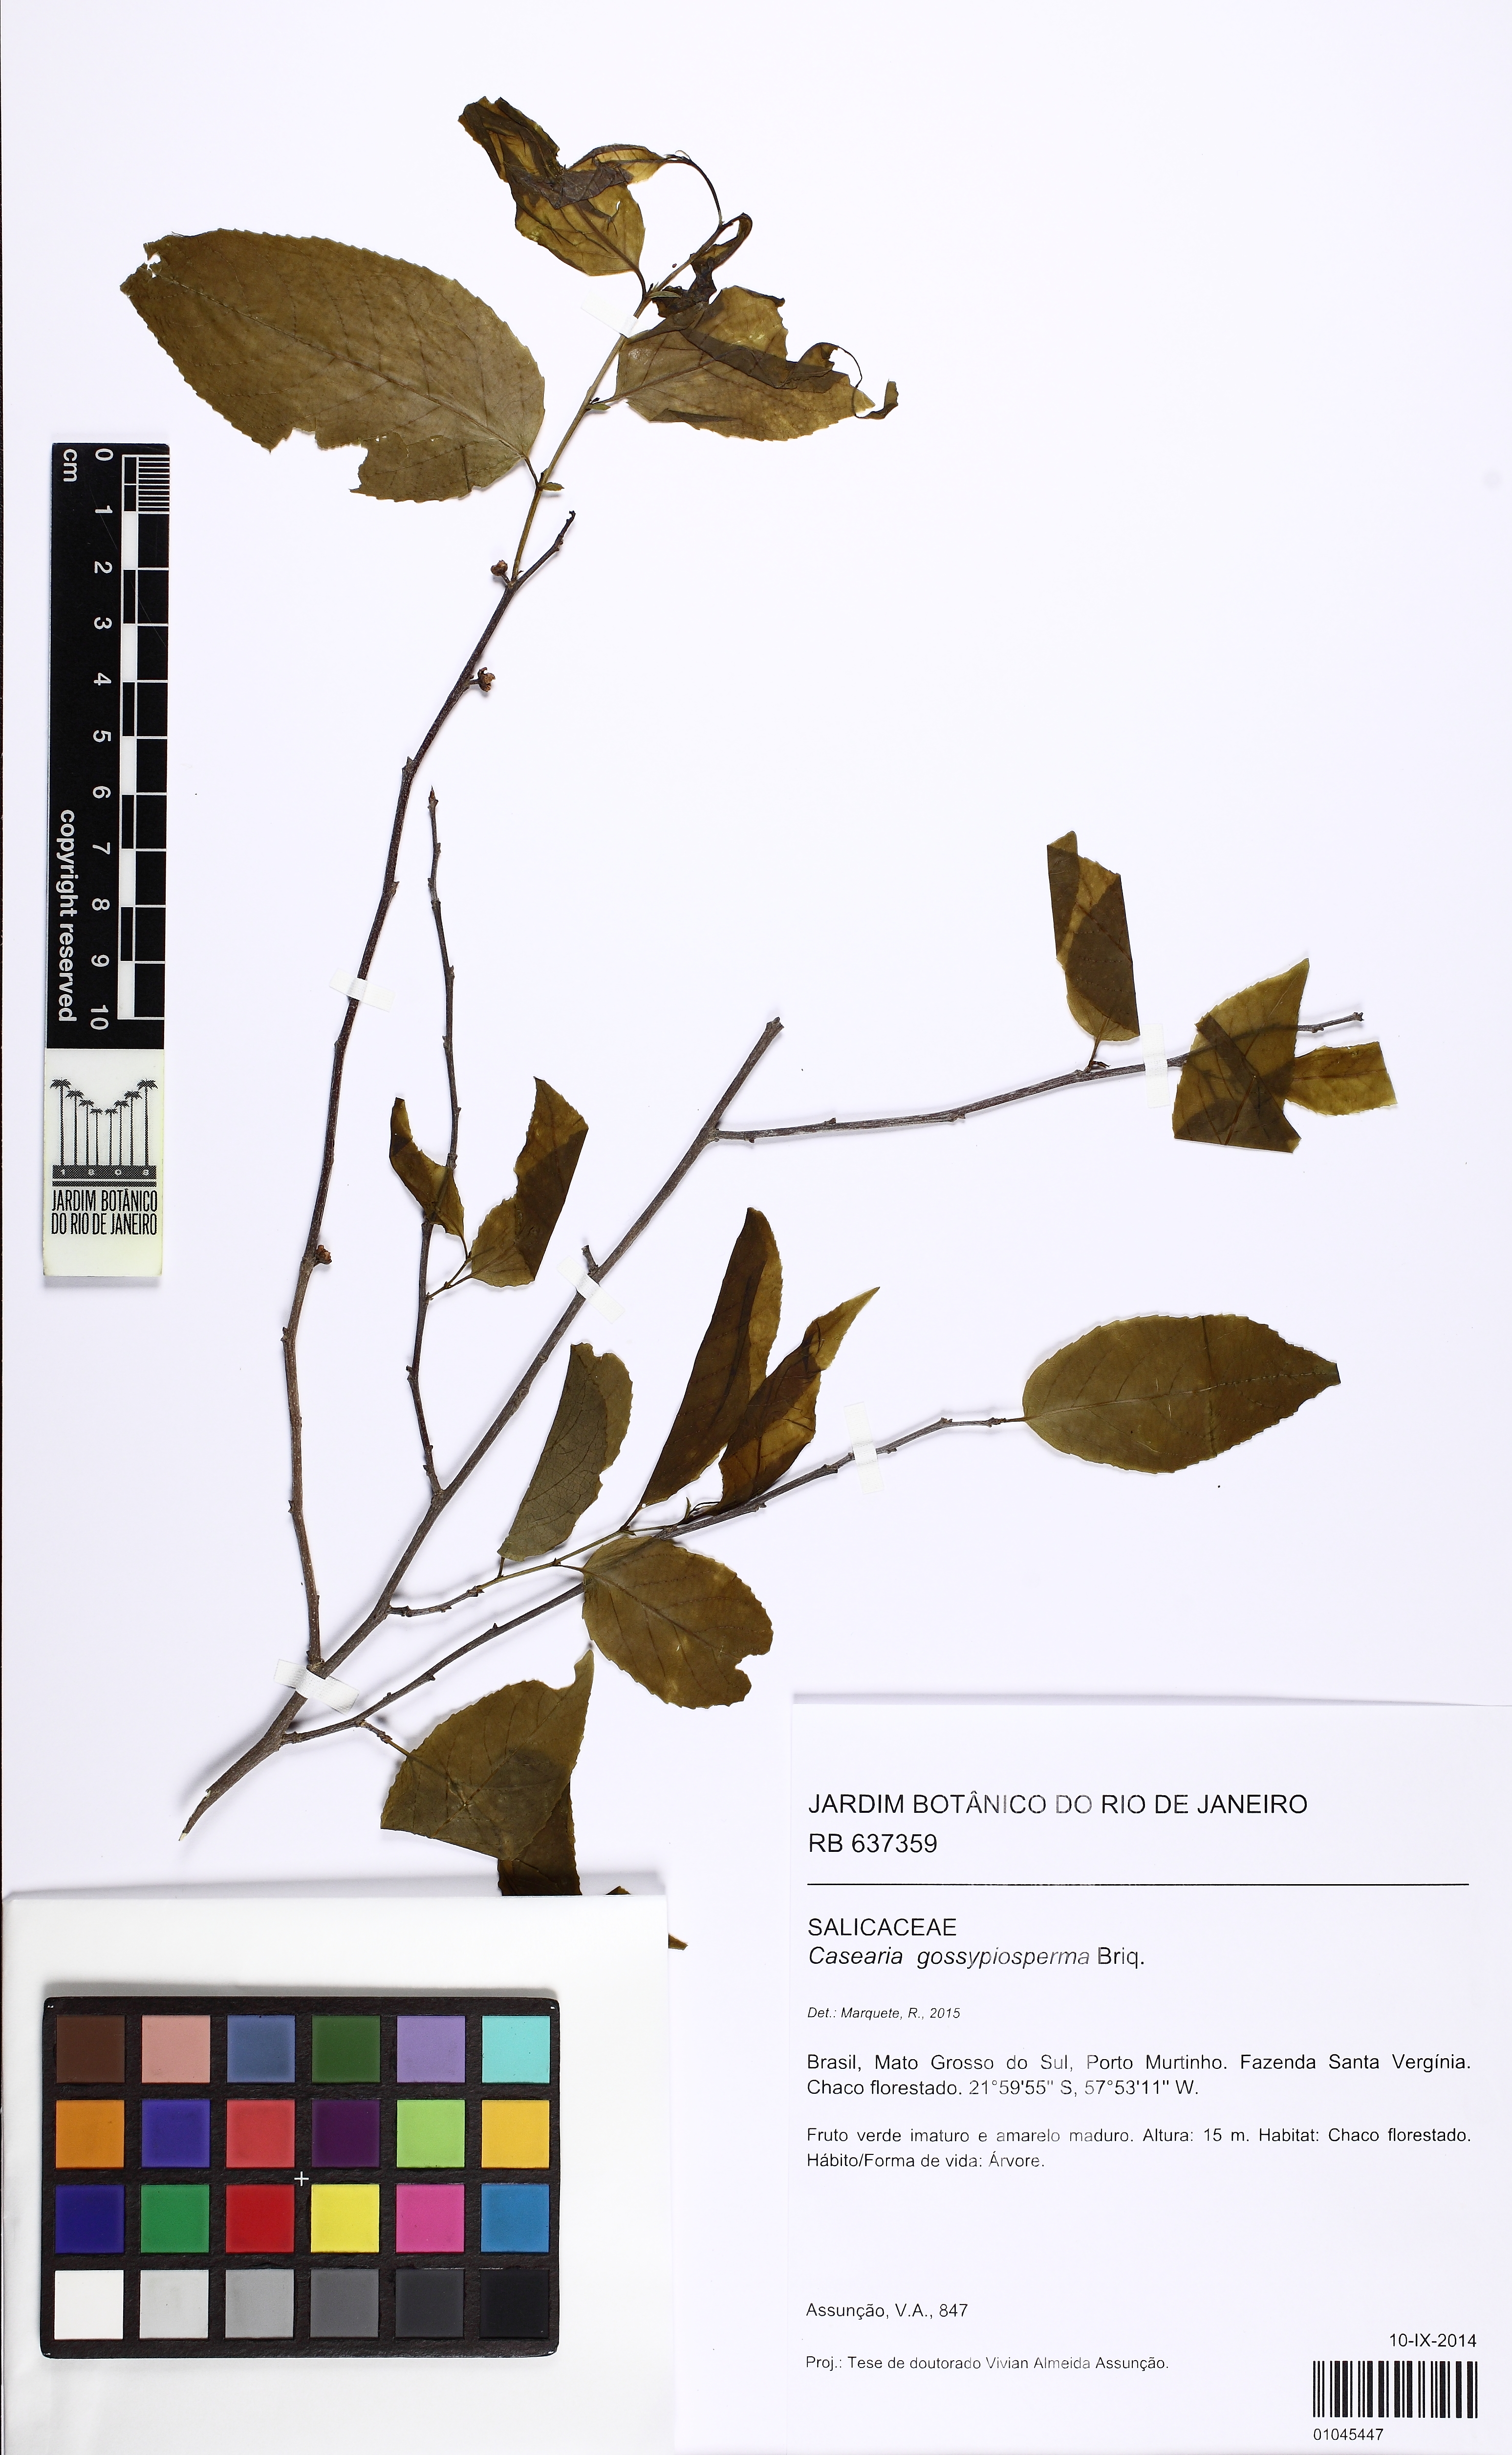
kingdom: Plantae
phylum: Tracheophyta
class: Magnoliopsida
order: Malpighiales
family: Salicaceae
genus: Casearia
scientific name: Casearia gossypiosperma
